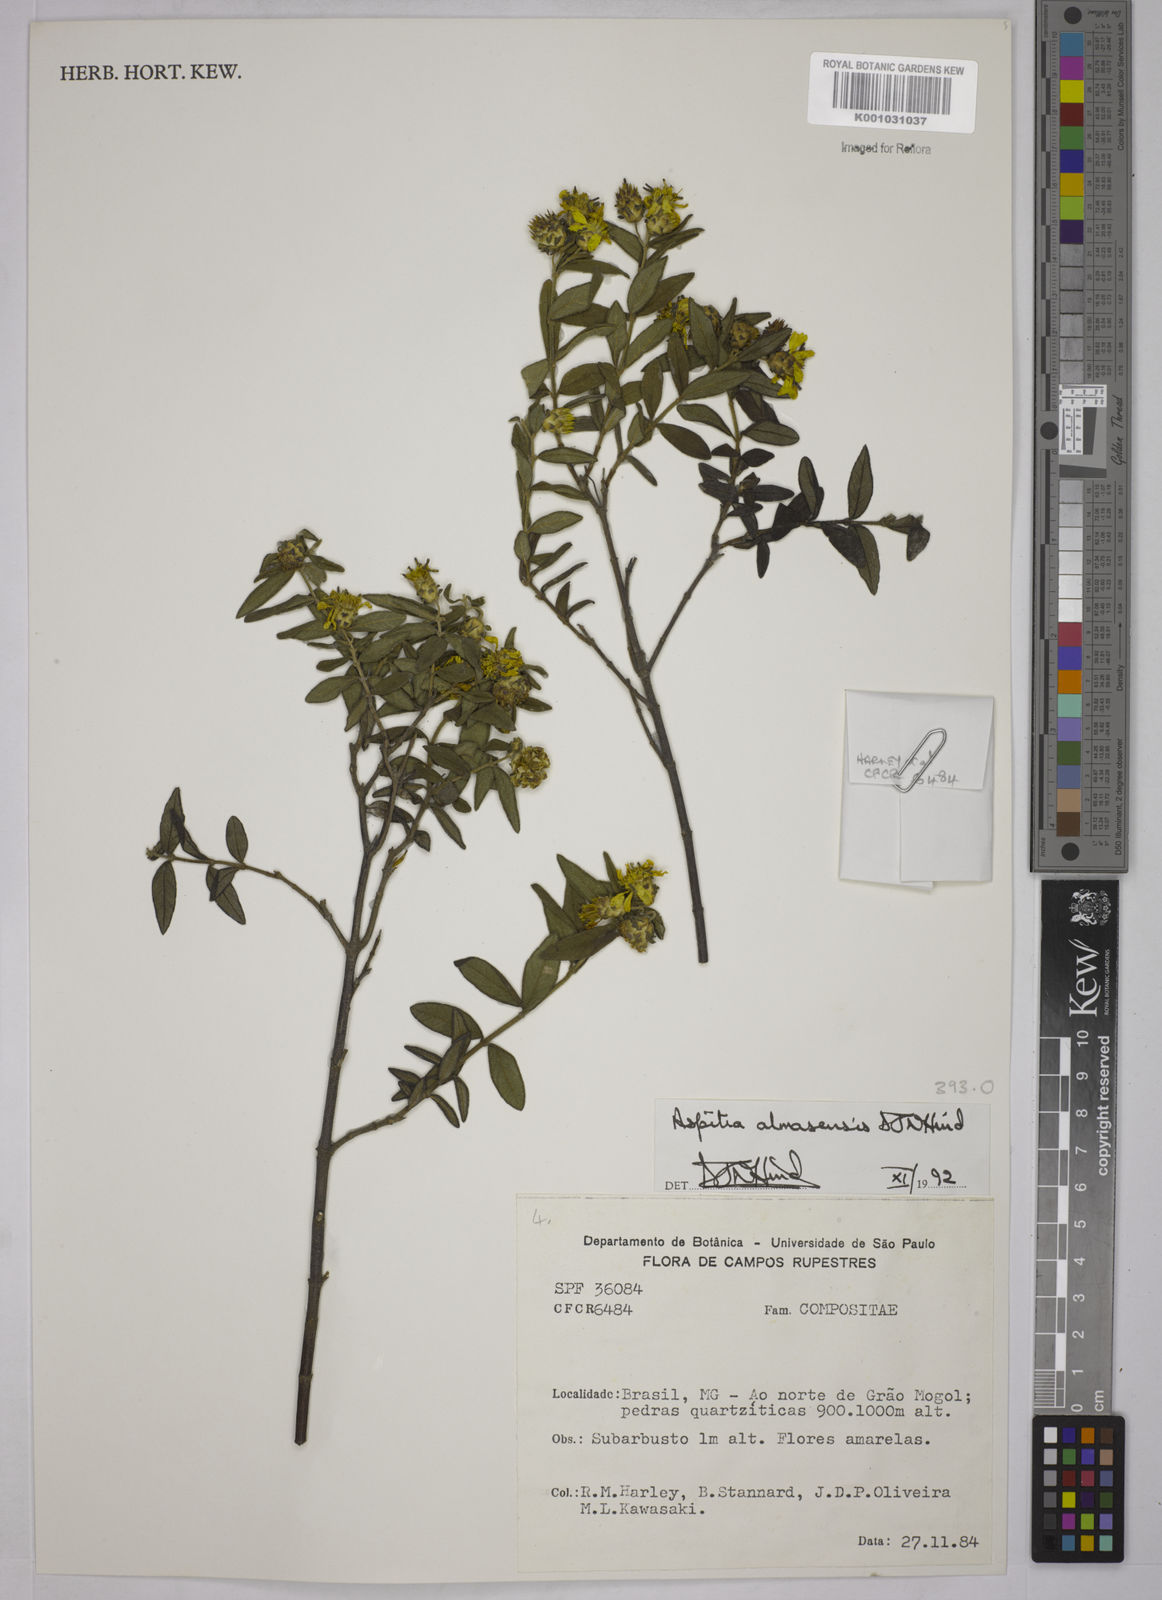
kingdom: Plantae
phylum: Tracheophyta
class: Magnoliopsida
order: Asterales
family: Asteraceae
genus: Aspilia
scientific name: Aspilia almasensis
